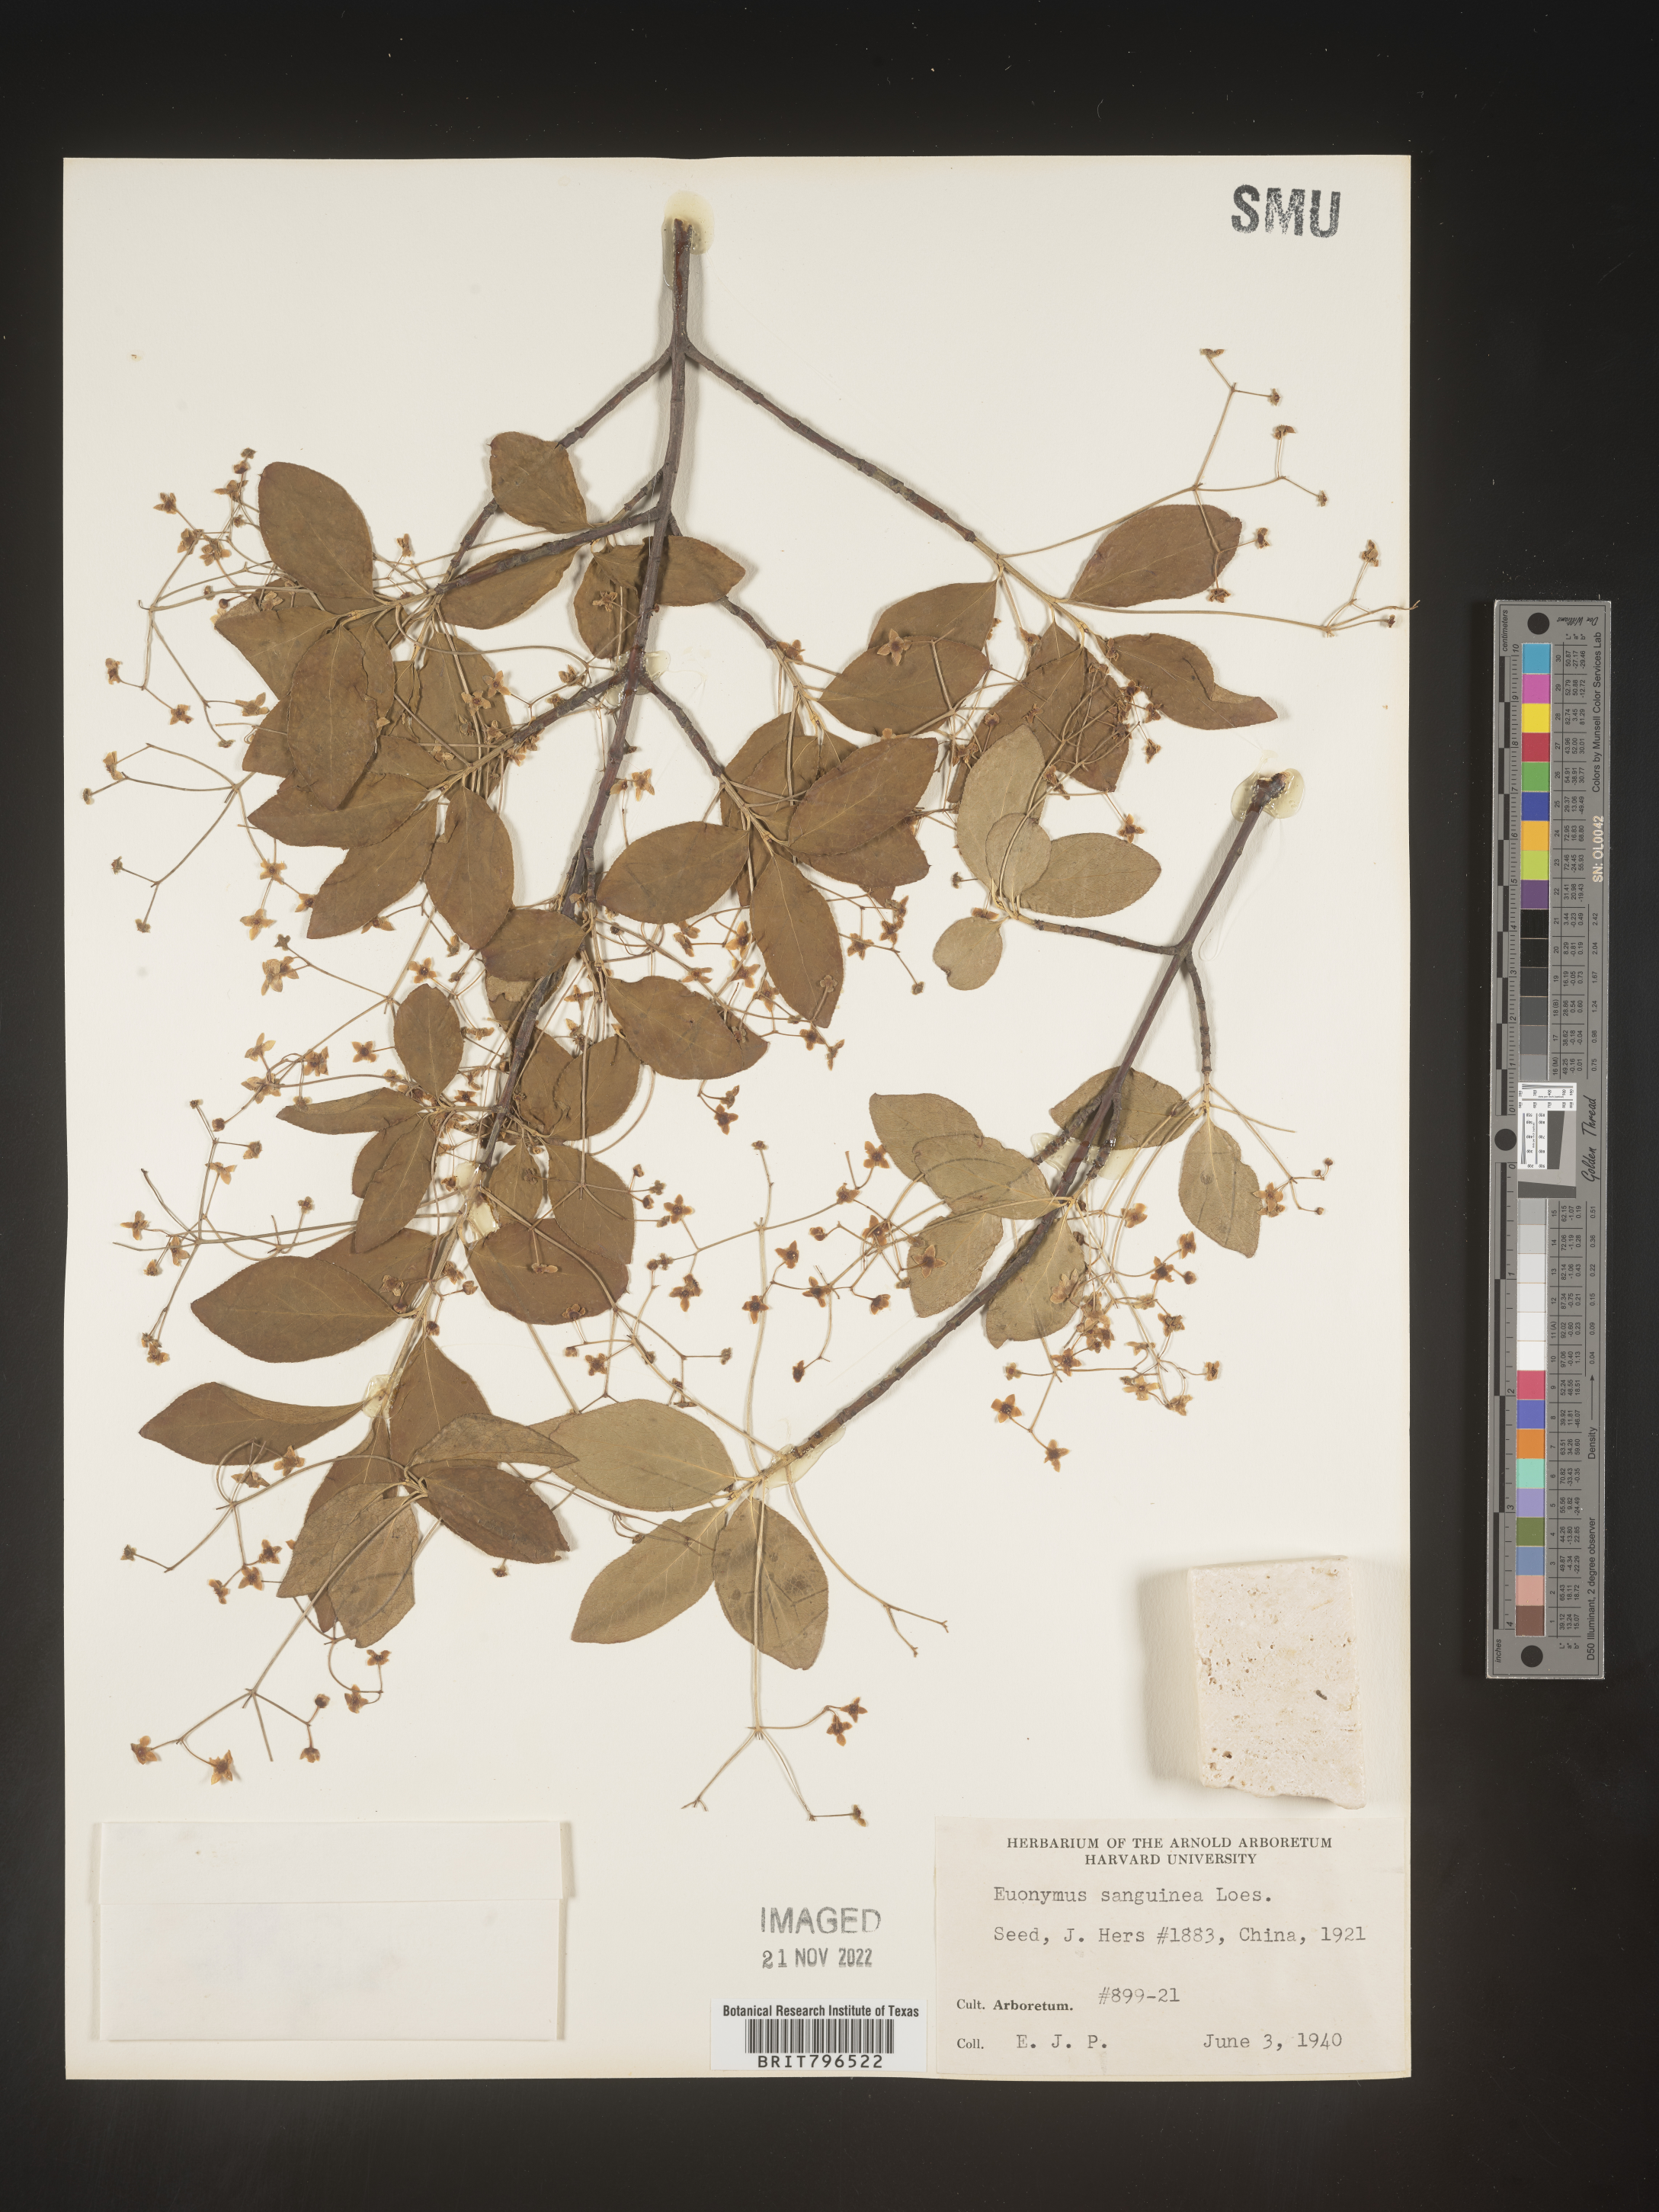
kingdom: Plantae
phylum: Tracheophyta
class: Magnoliopsida
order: Celastrales
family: Celastraceae
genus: Euonymus
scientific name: Euonymus
